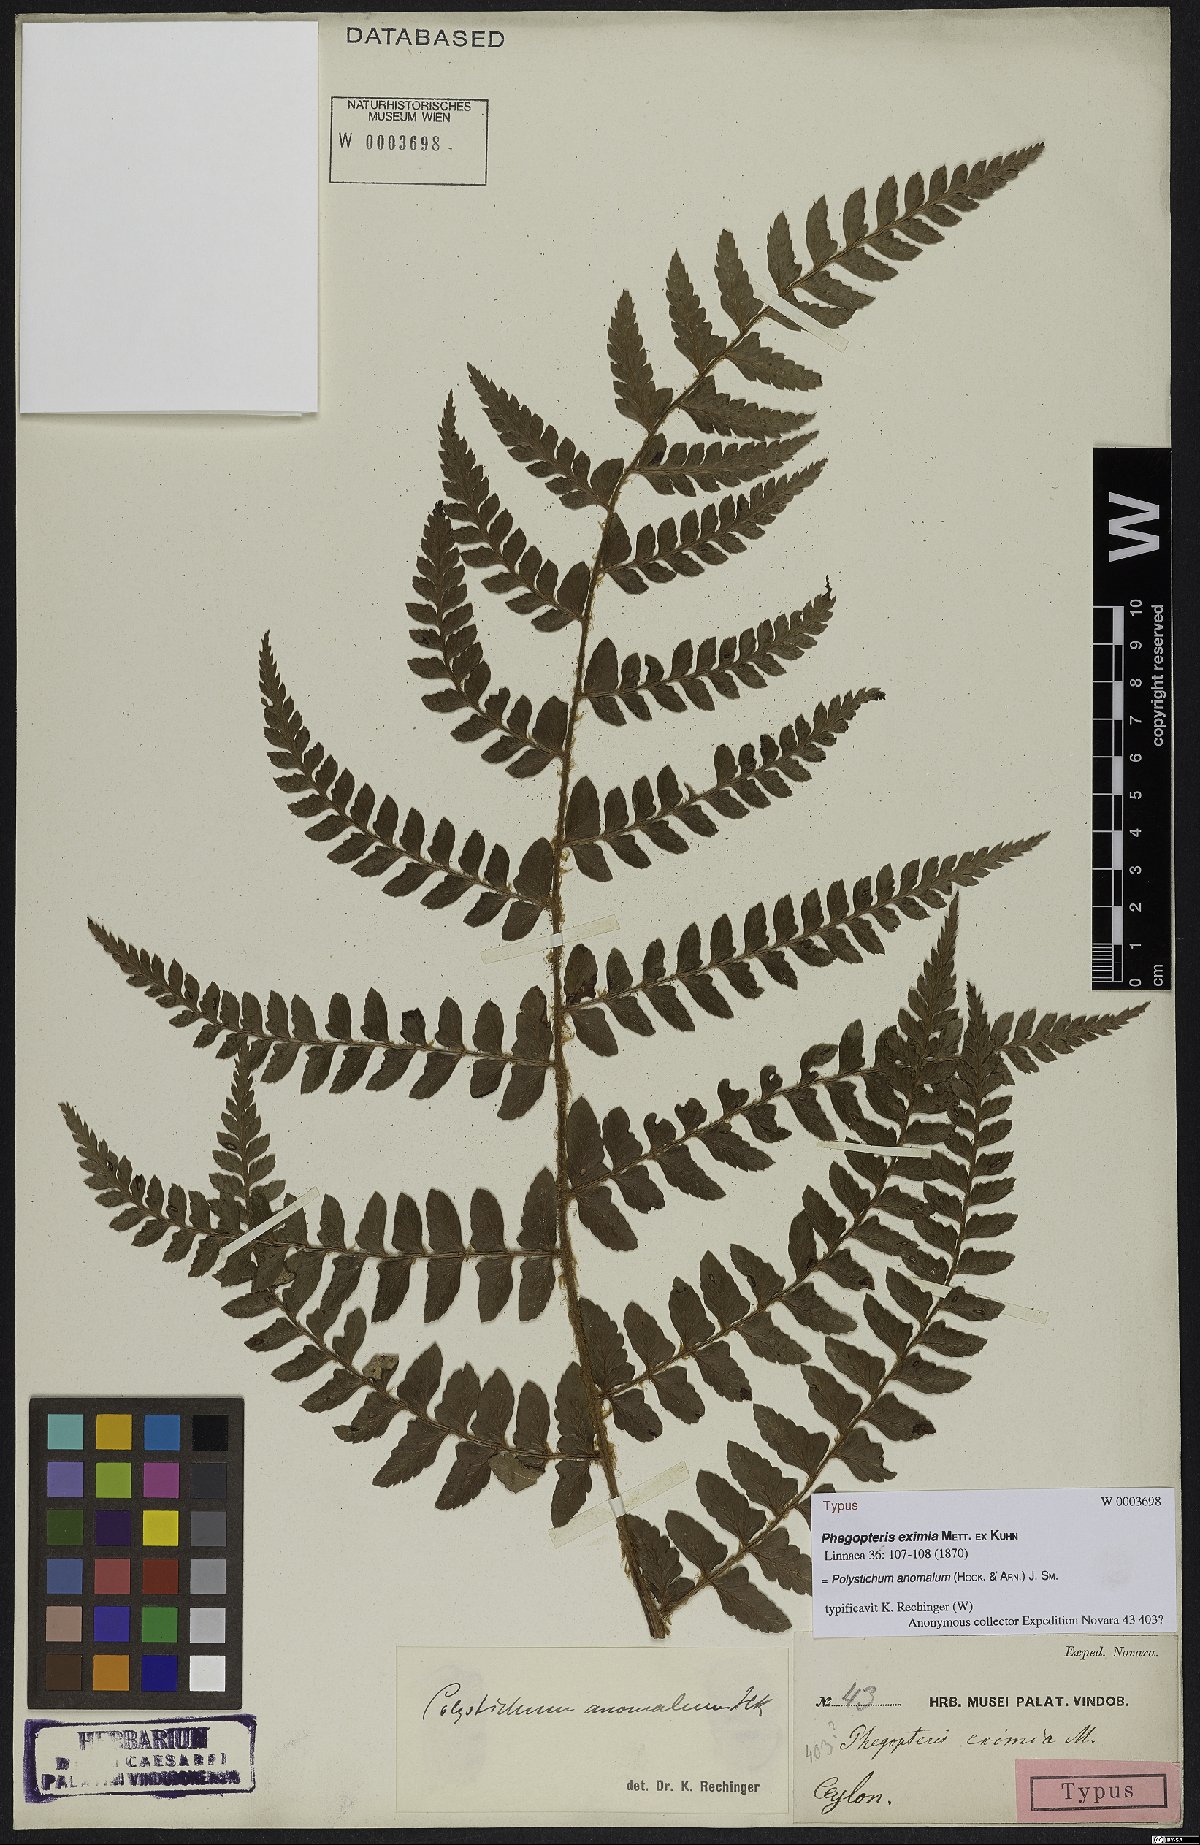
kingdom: Plantae
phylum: Tracheophyta
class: Polypodiopsida
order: Polypodiales
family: Dryopteridaceae
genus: Polystichum
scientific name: Polystichum anomalum
